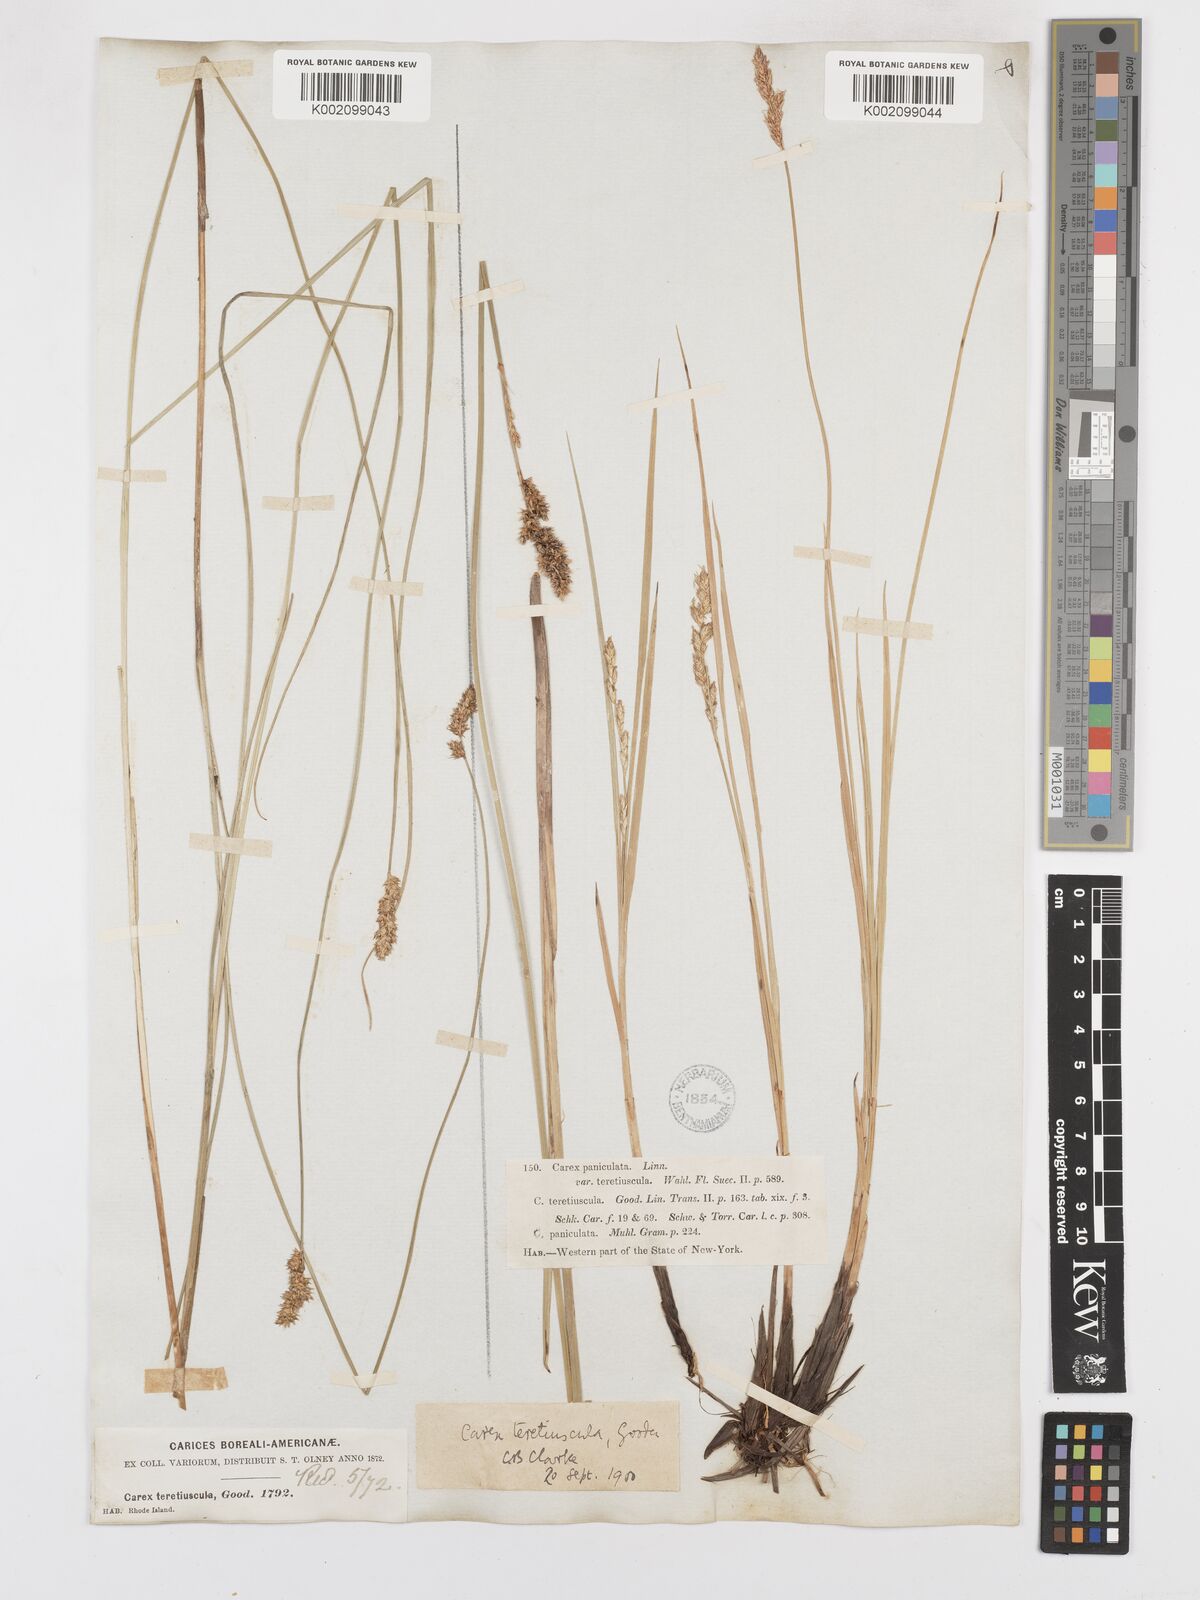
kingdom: Plantae
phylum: Tracheophyta
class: Liliopsida
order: Poales
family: Cyperaceae
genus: Carex
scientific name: Carex diandra
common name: Lesser tussock-sedge
